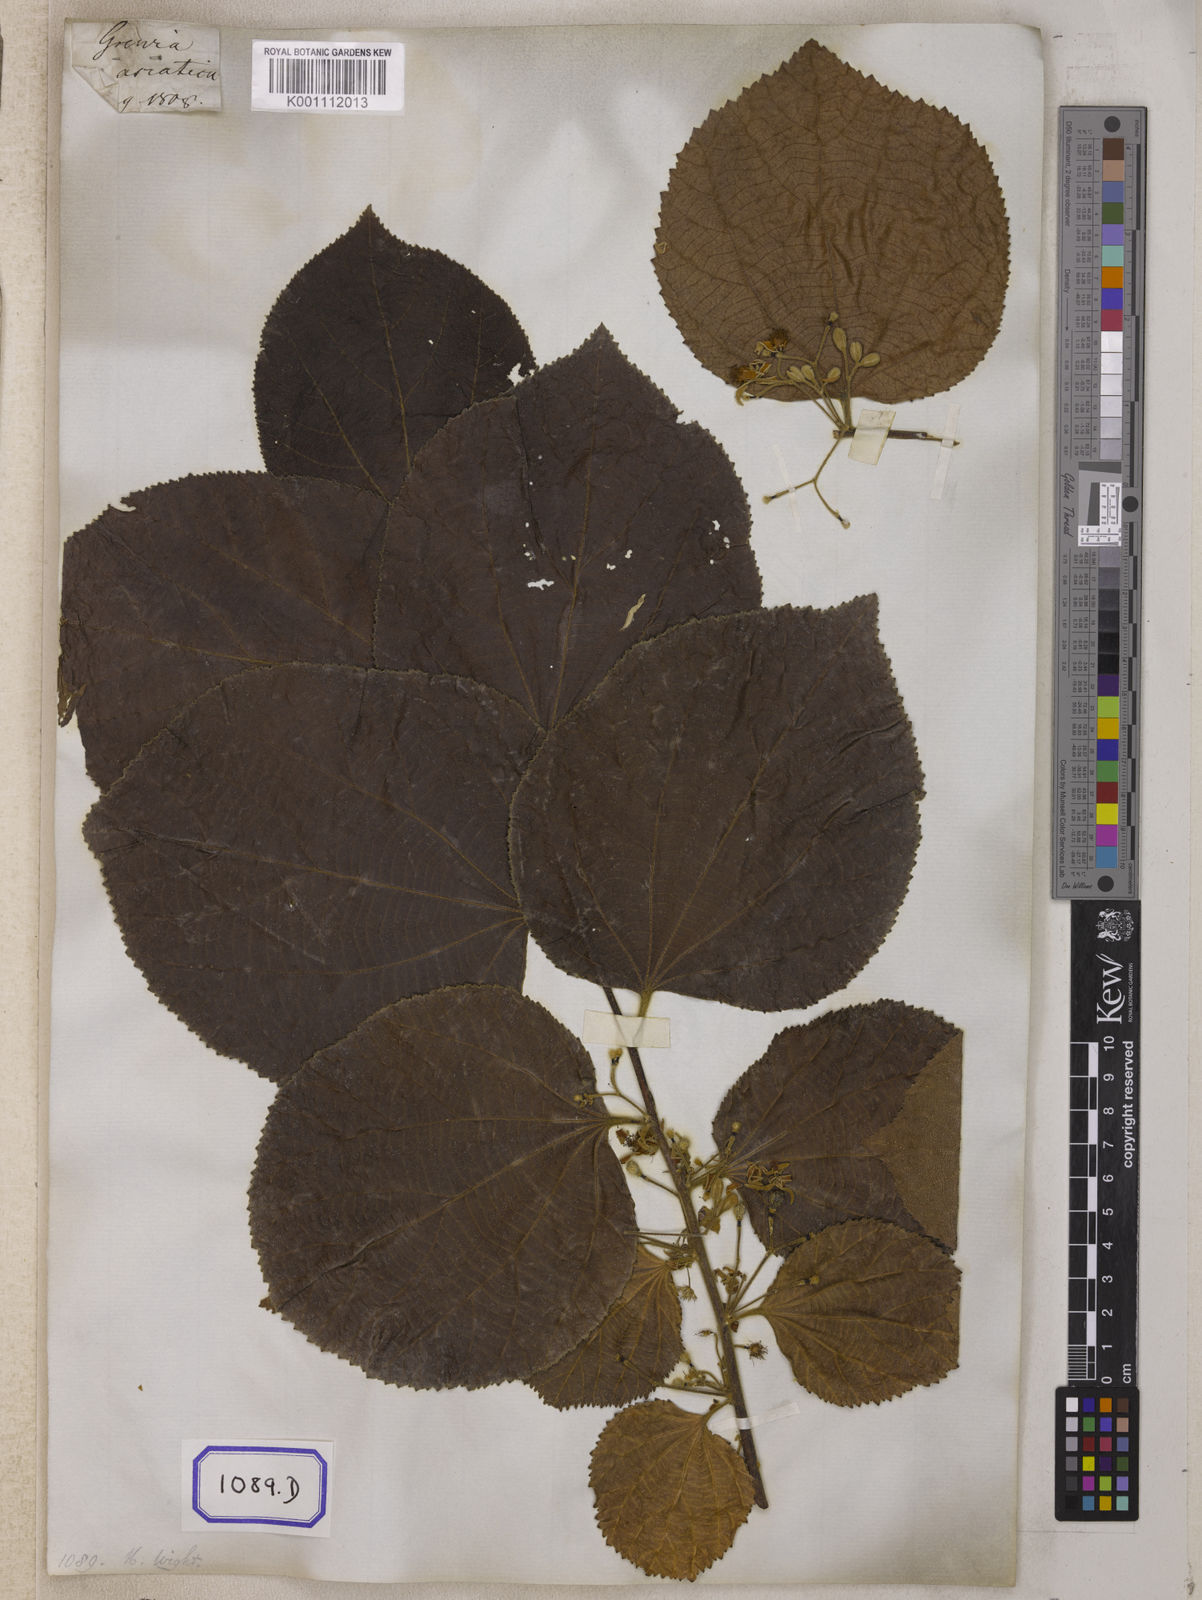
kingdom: Plantae
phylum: Tracheophyta
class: Magnoliopsida
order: Malvales
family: Malvaceae
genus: Grewia
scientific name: Grewia asiatica
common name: Phalsa
